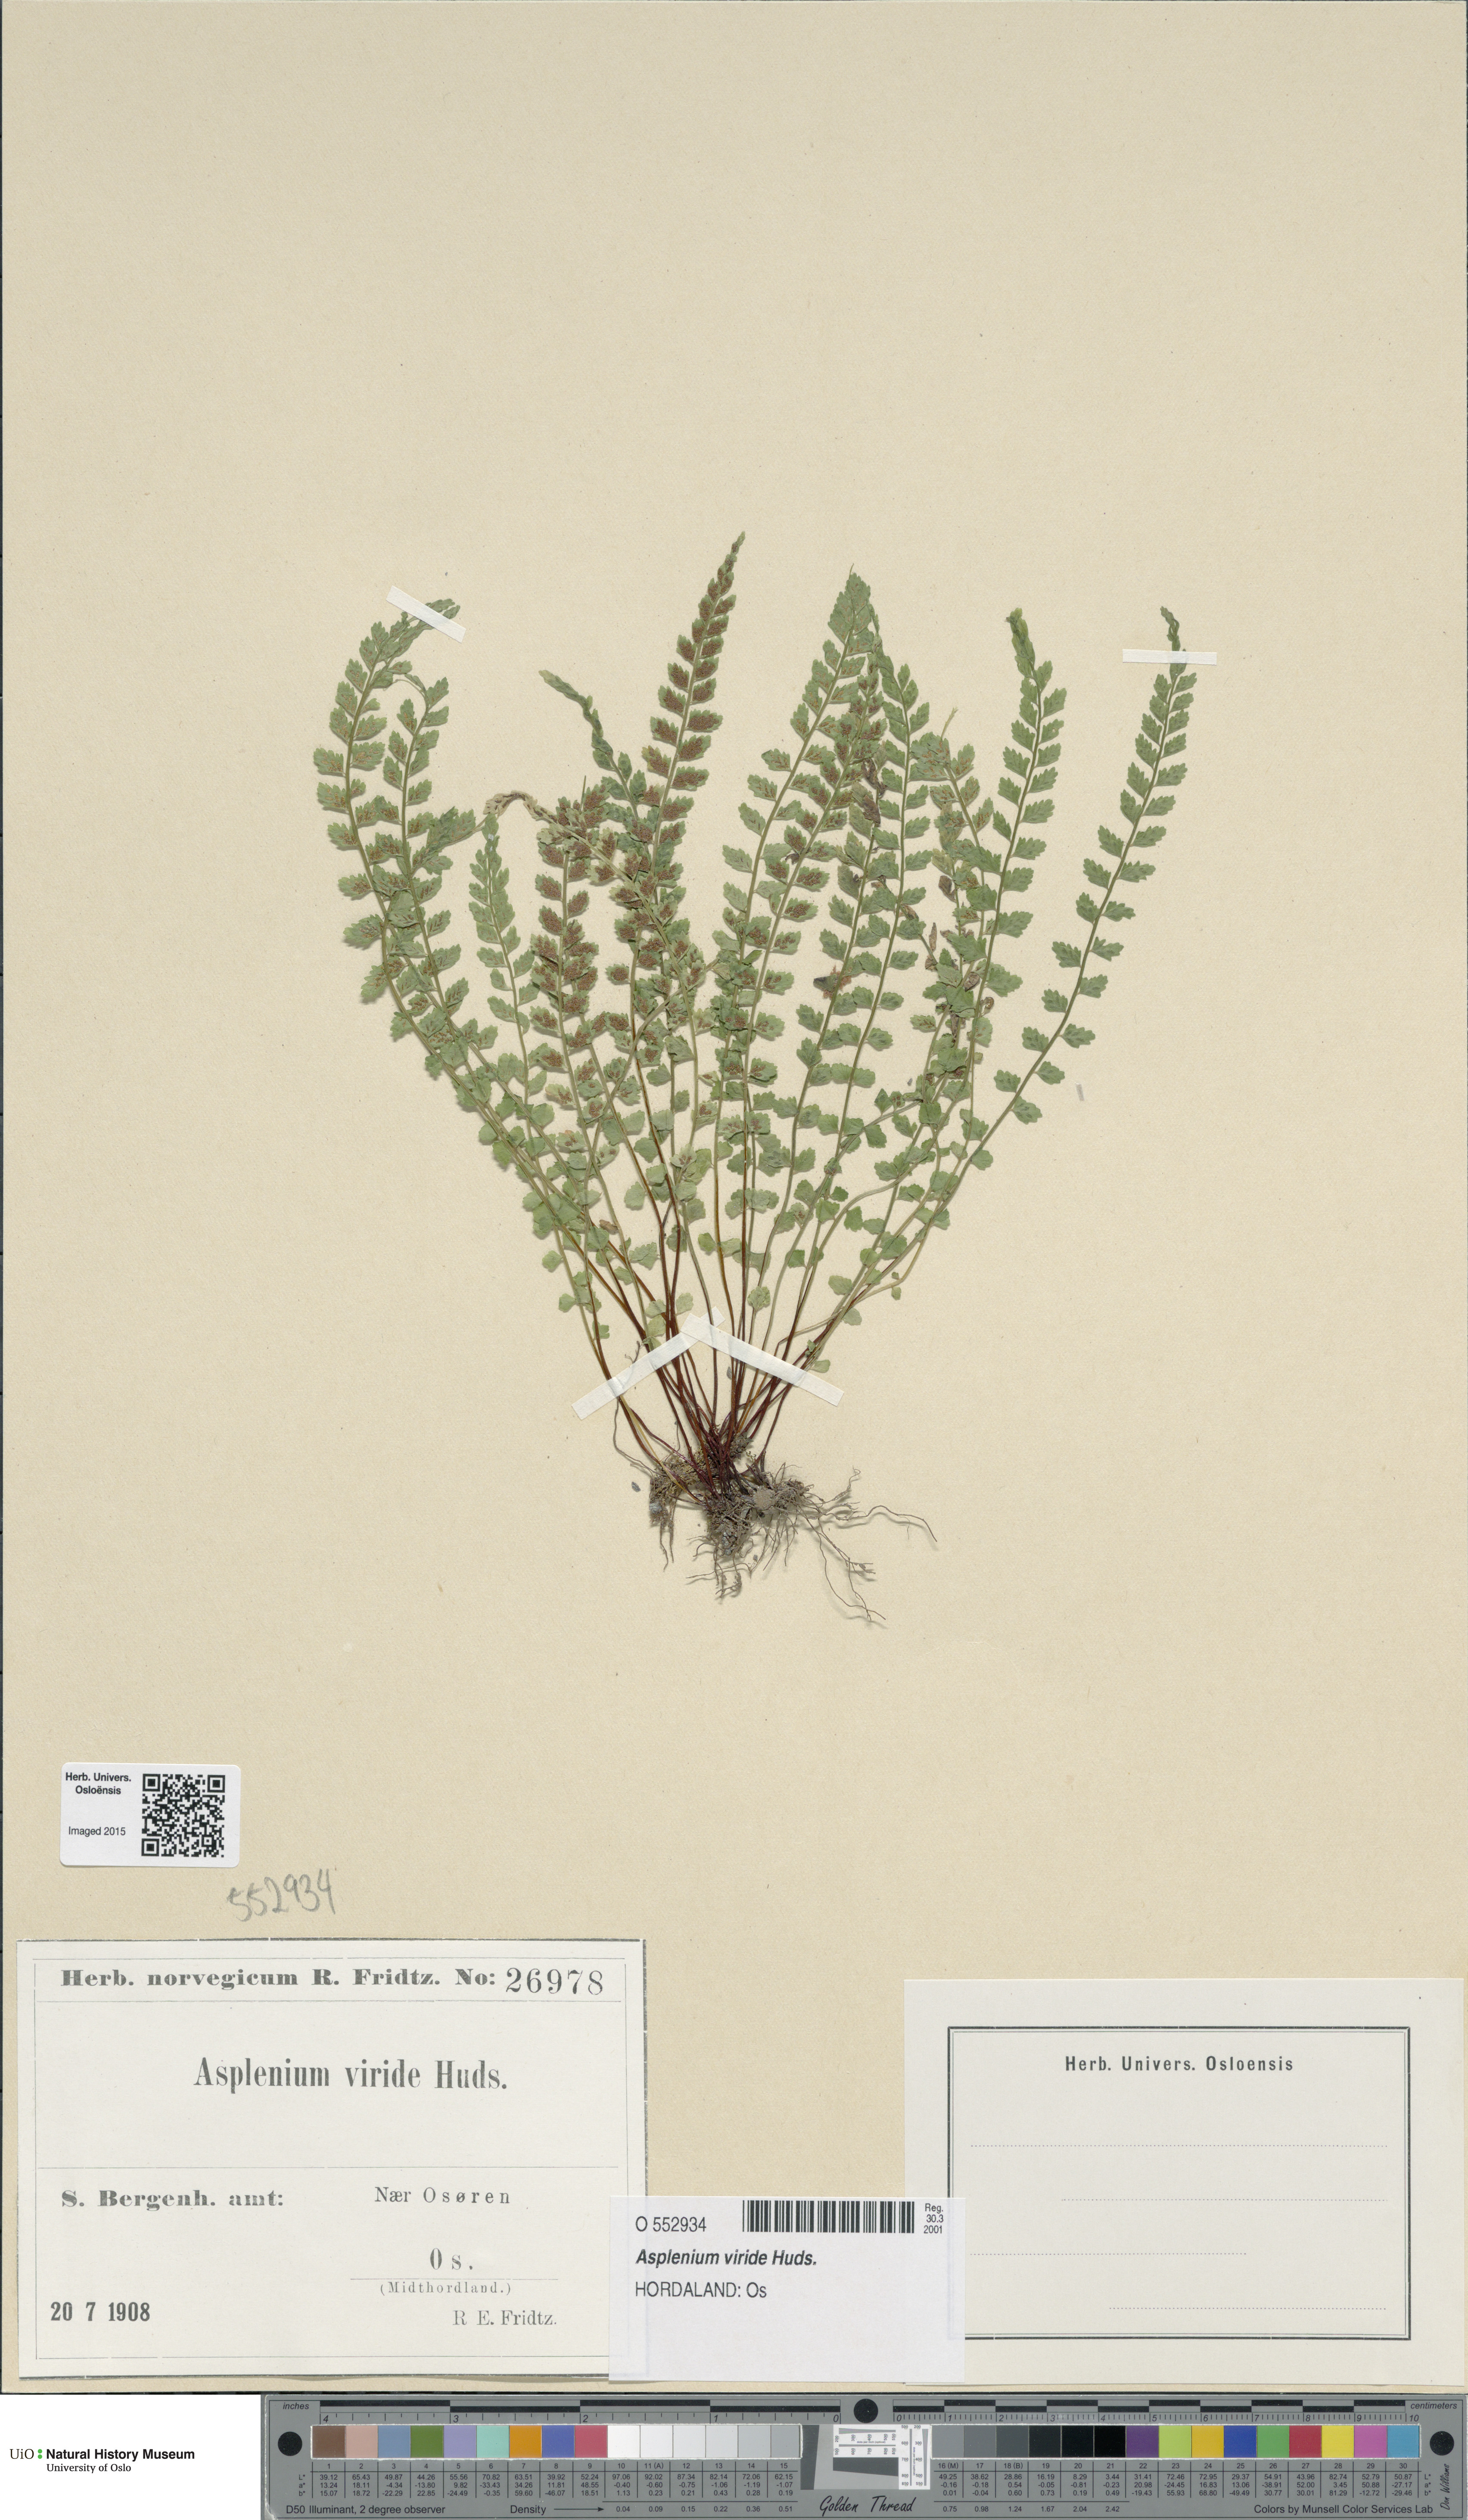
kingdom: Plantae
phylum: Tracheophyta
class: Polypodiopsida
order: Polypodiales
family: Aspleniaceae
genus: Asplenium
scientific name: Asplenium viride
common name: Green spleenwort
